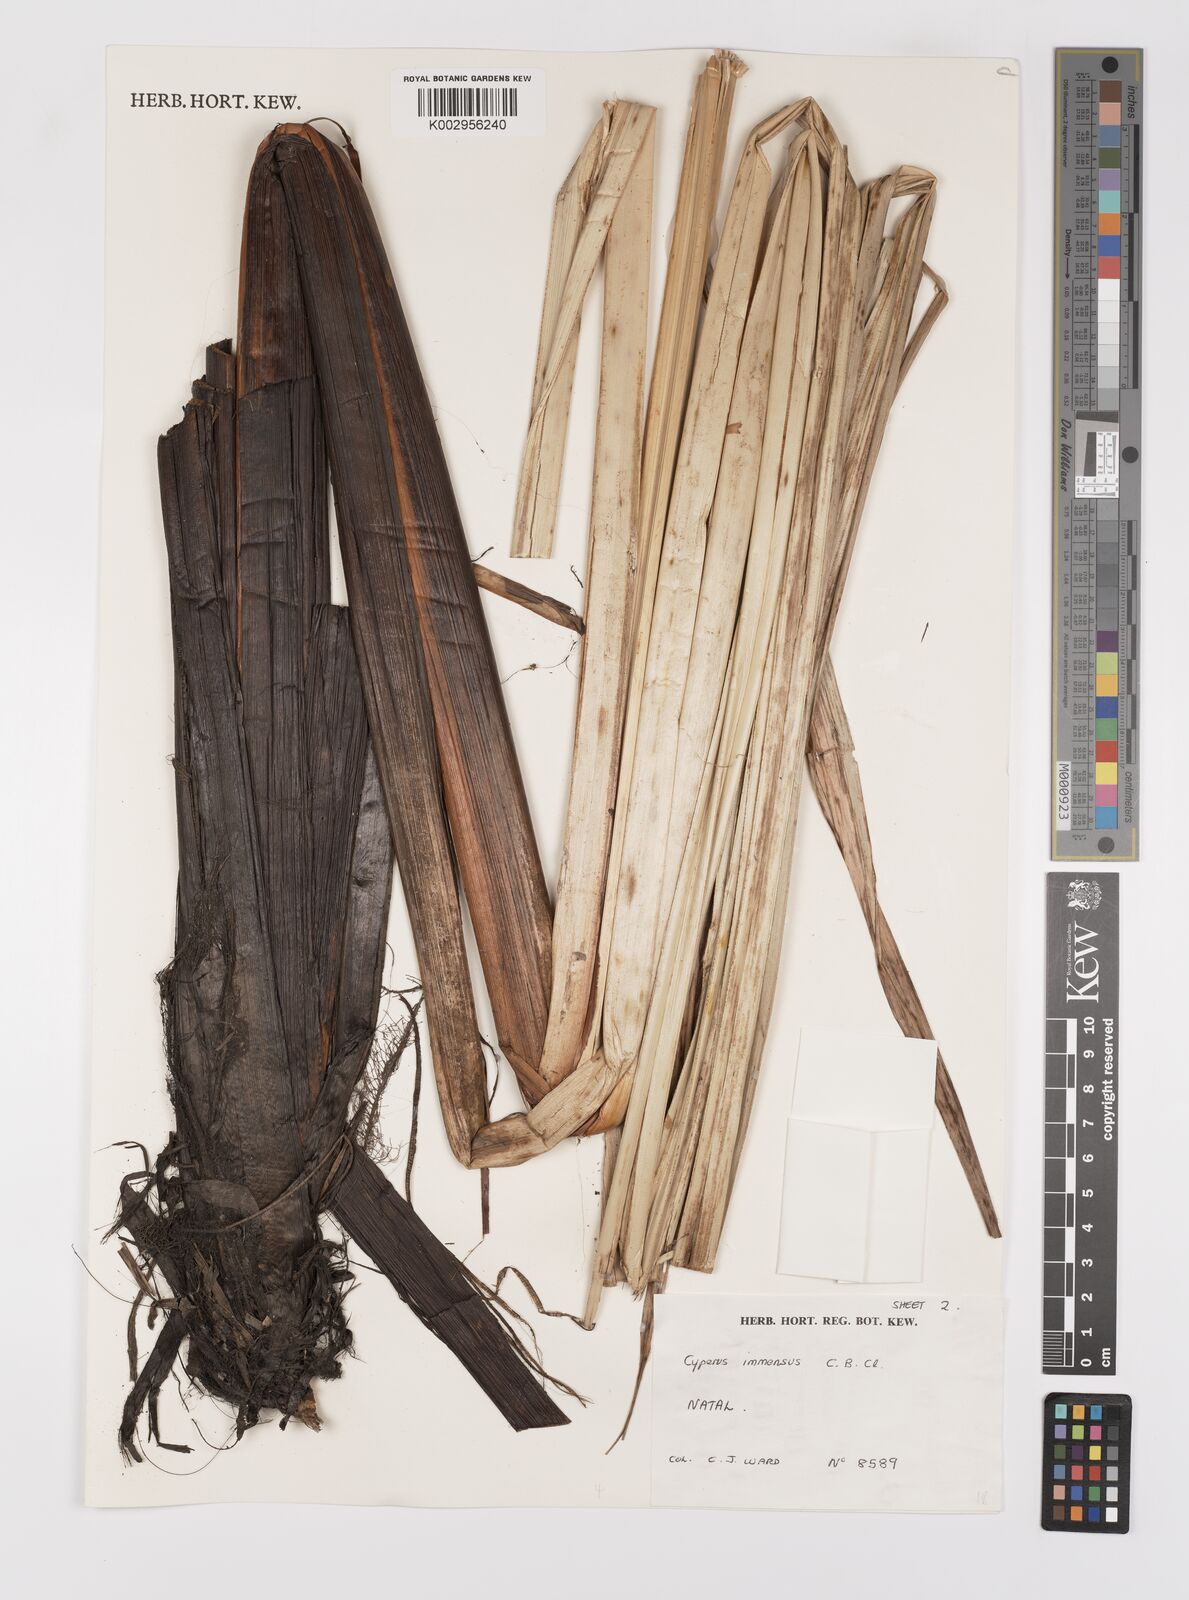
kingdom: Plantae
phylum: Tracheophyta
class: Liliopsida
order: Poales
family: Cyperaceae
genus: Cyperus
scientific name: Cyperus dives
